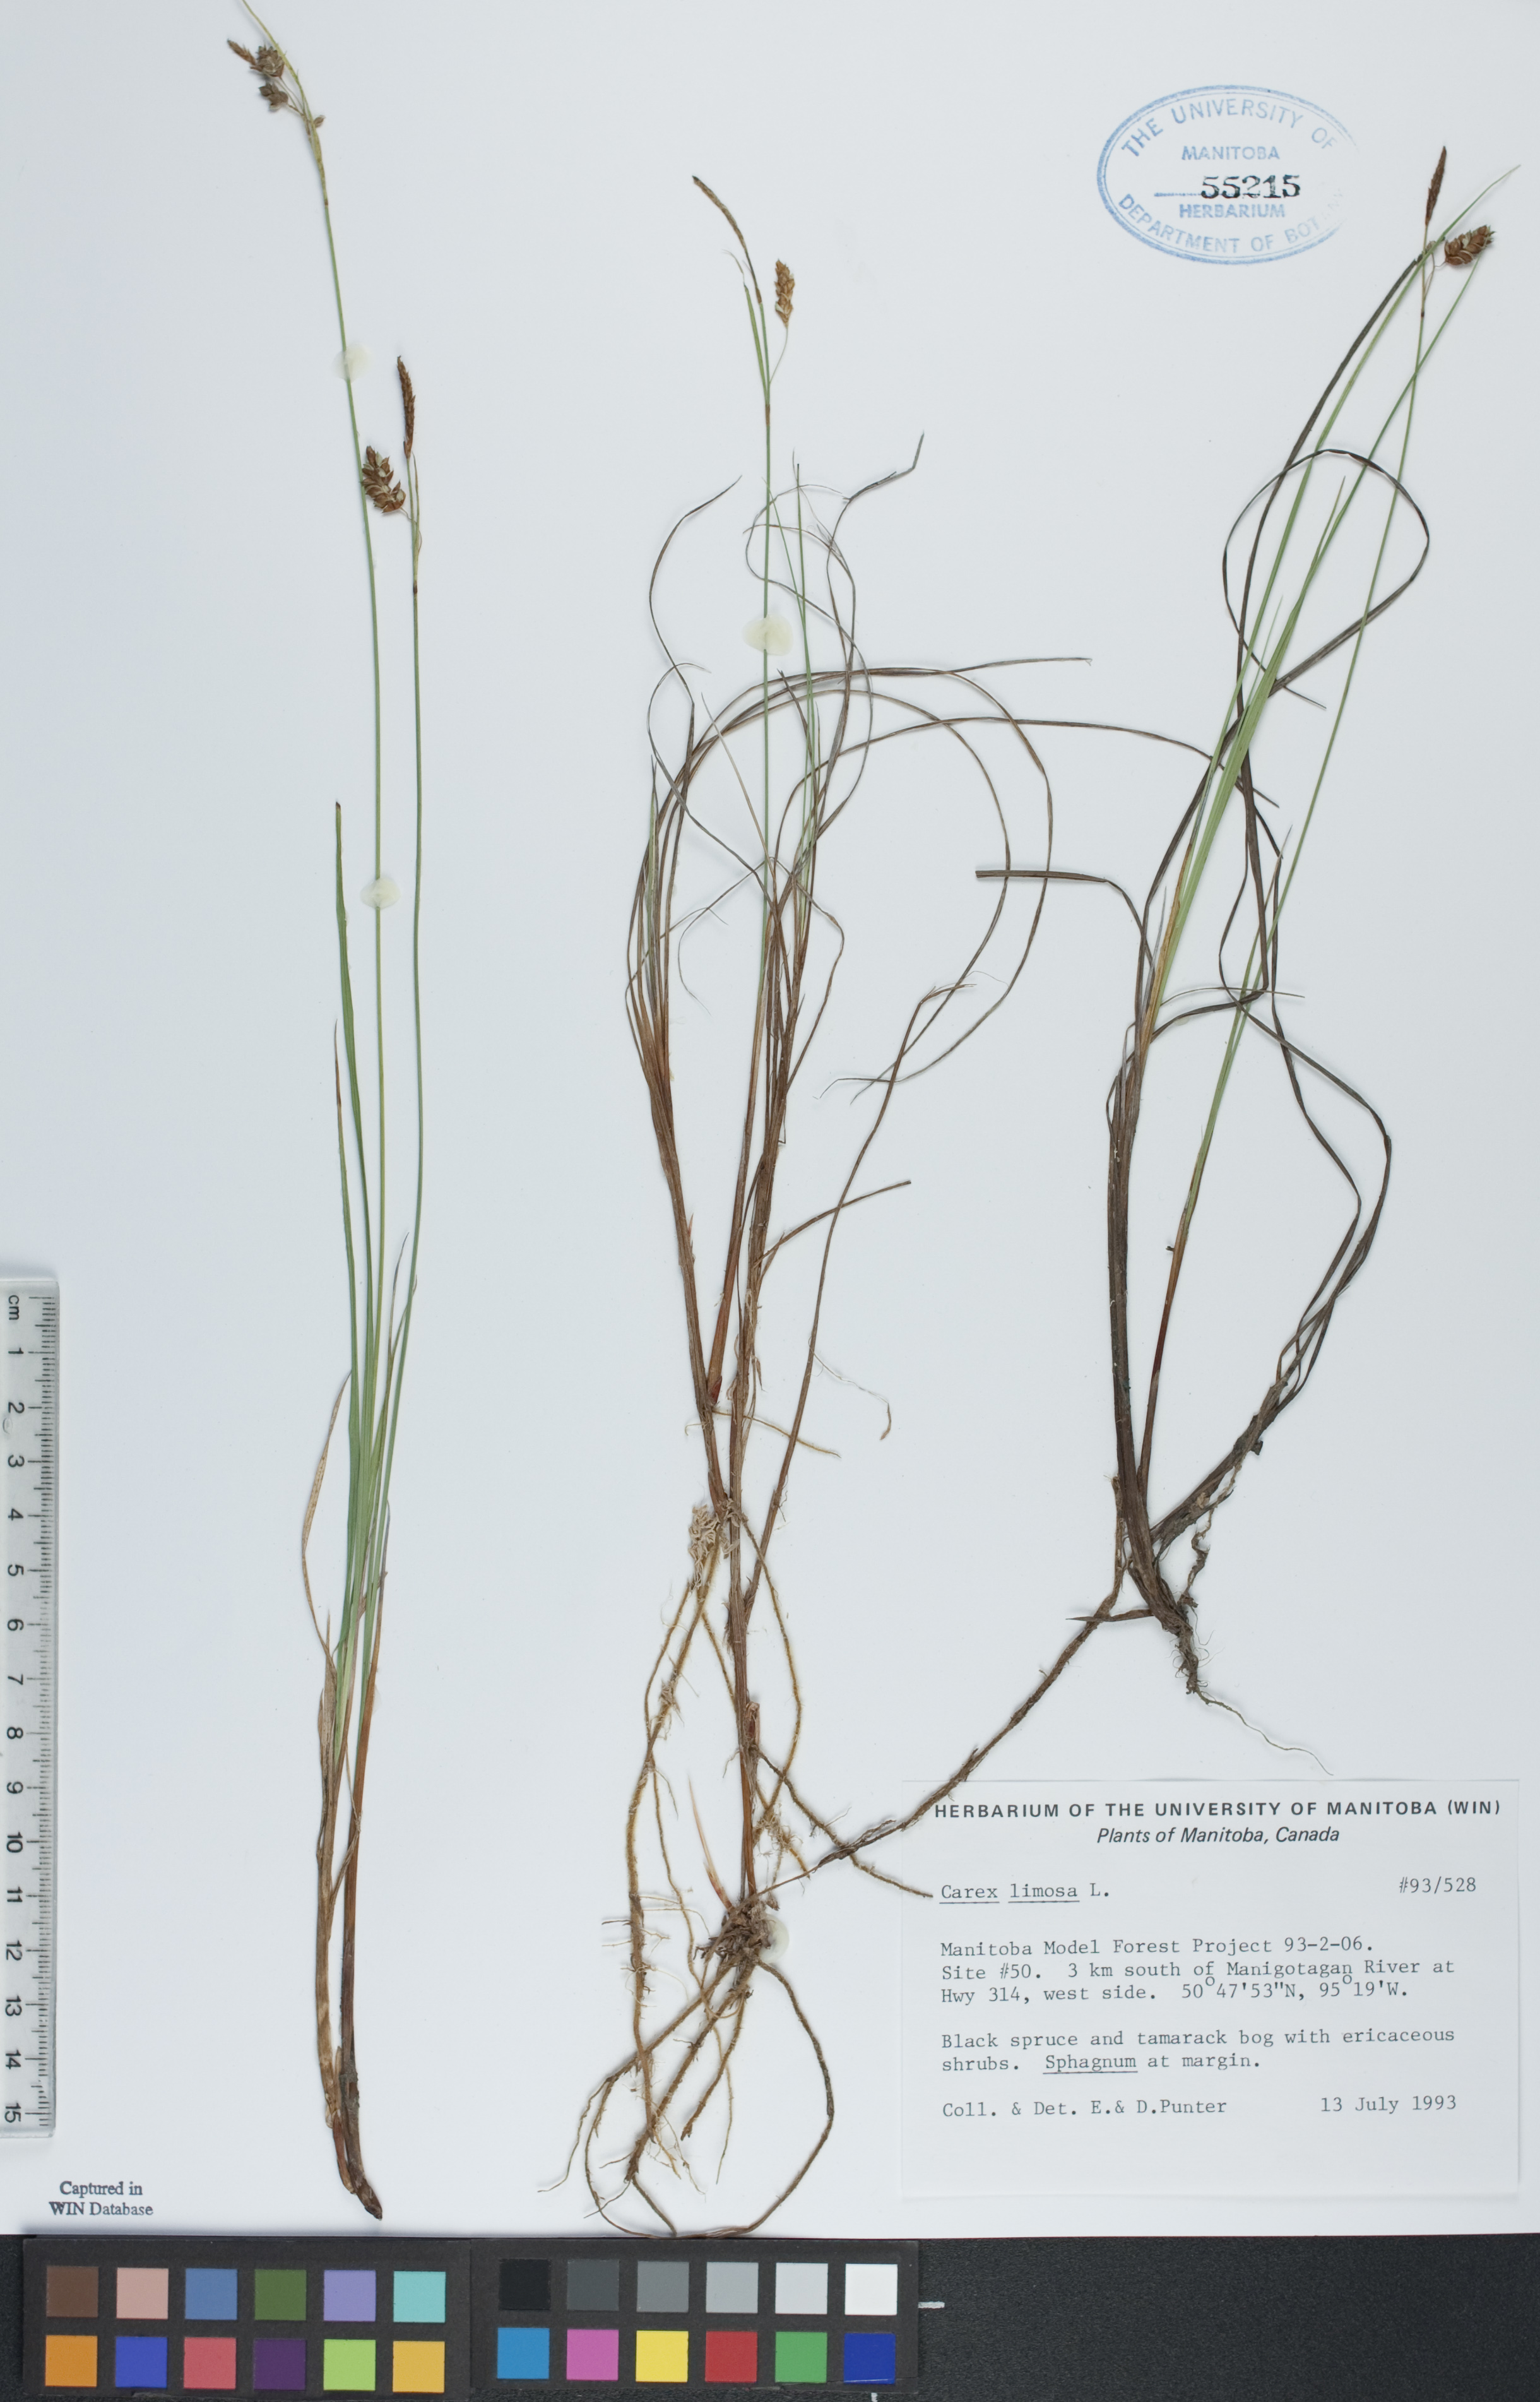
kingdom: Plantae
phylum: Tracheophyta
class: Liliopsida
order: Poales
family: Cyperaceae
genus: Carex
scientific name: Carex limosa
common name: Bog sedge
